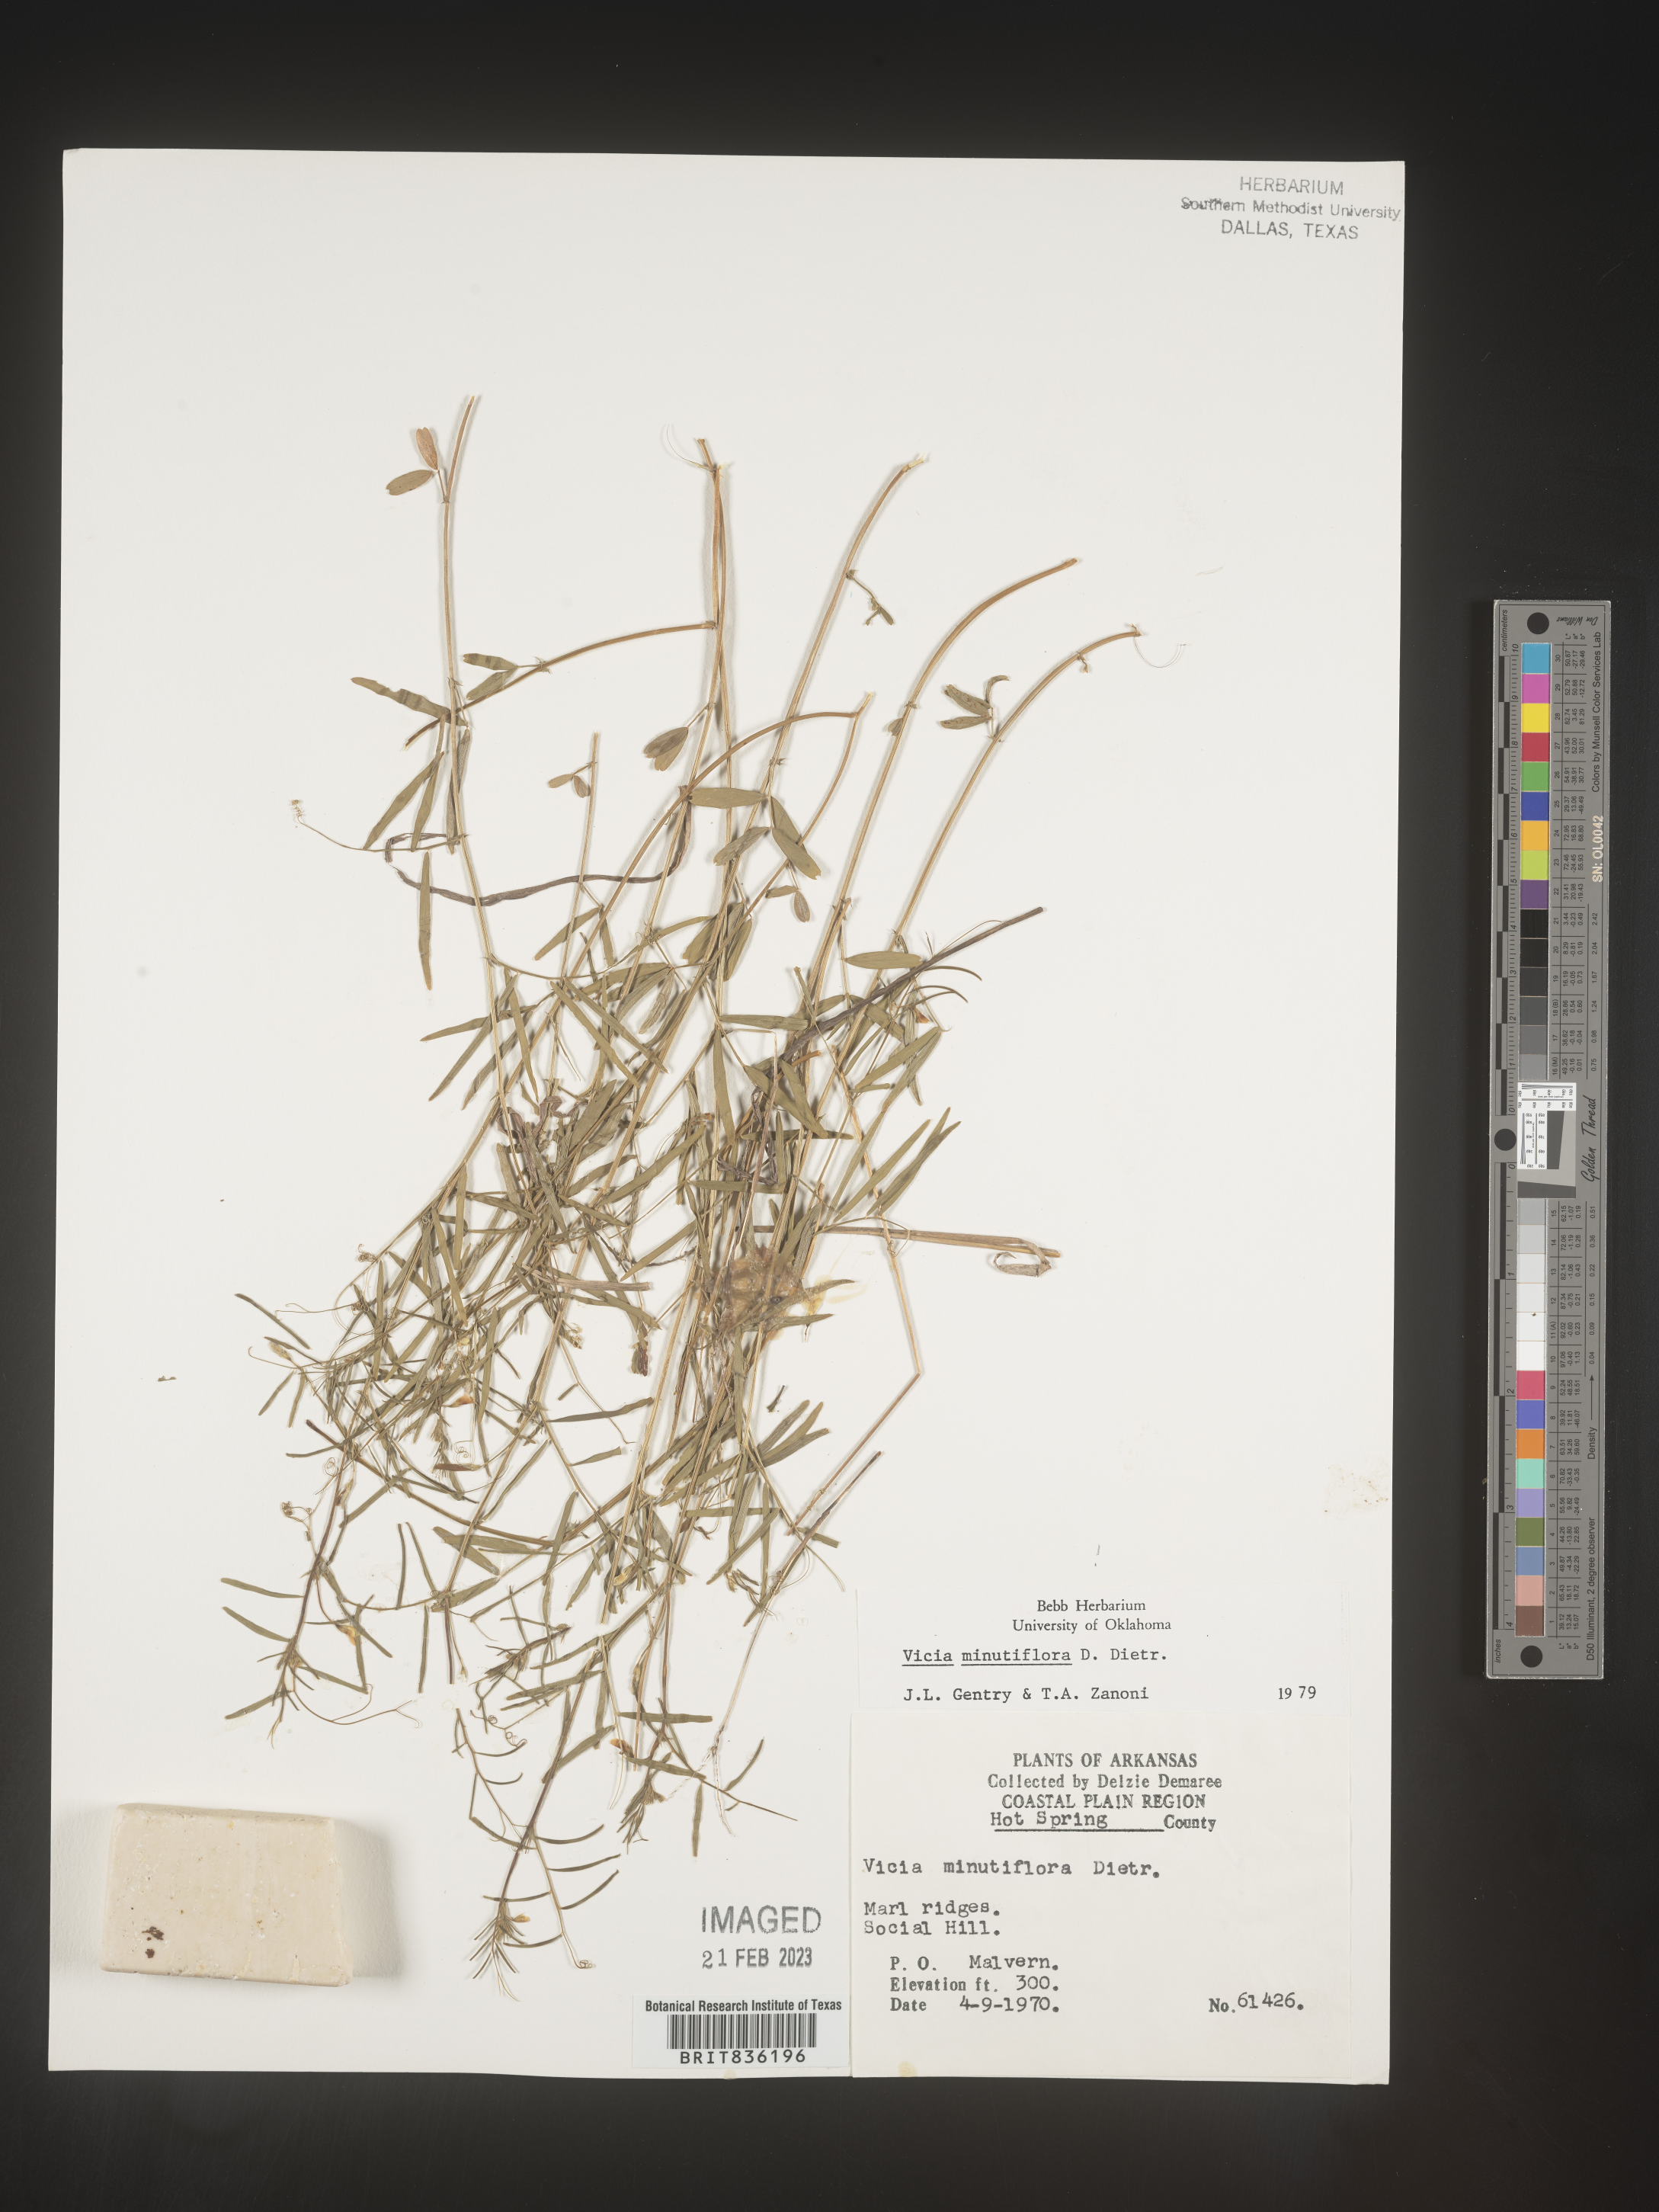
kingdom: Plantae
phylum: Tracheophyta
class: Magnoliopsida
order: Fabales
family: Fabaceae
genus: Vicia
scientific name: Vicia minutiflora
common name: Pygmy-flower vetch
